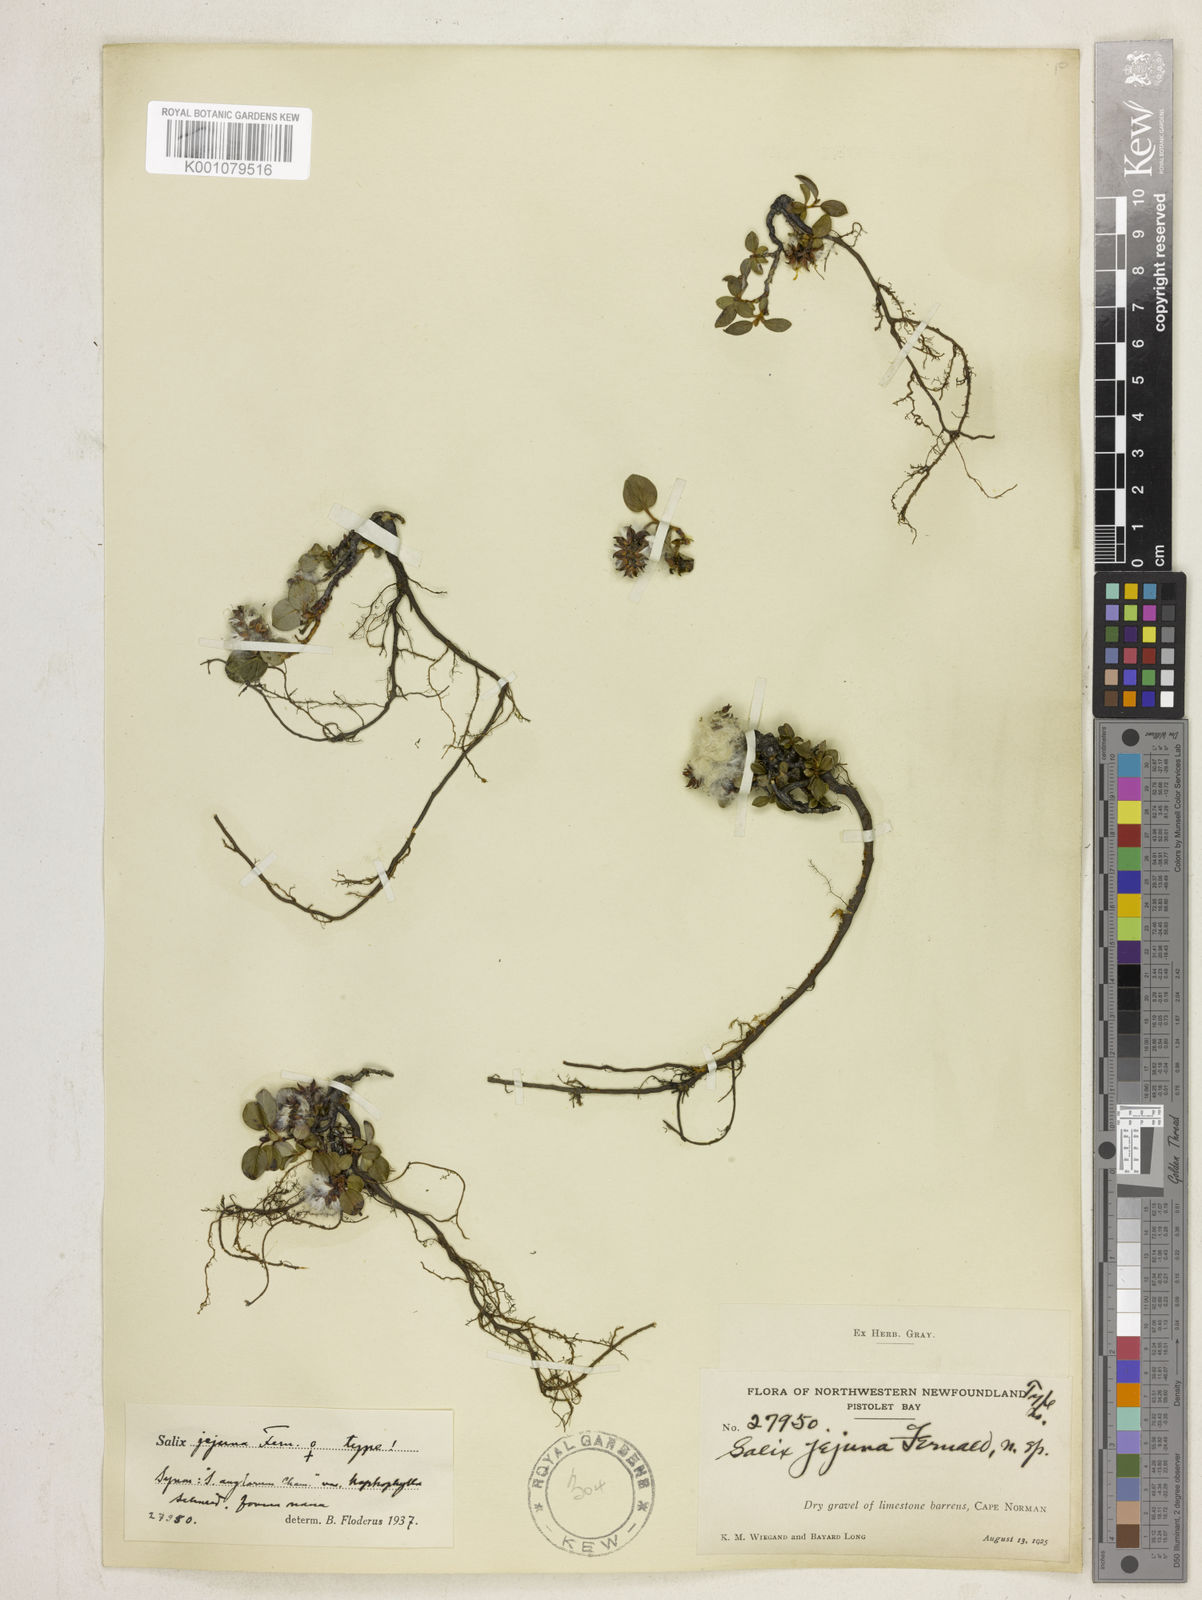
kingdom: Plantae
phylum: Tracheophyta
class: Magnoliopsida
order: Malpighiales
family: Salicaceae
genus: Salix
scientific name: Salix jejuna
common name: Belle isle dwarf willow
